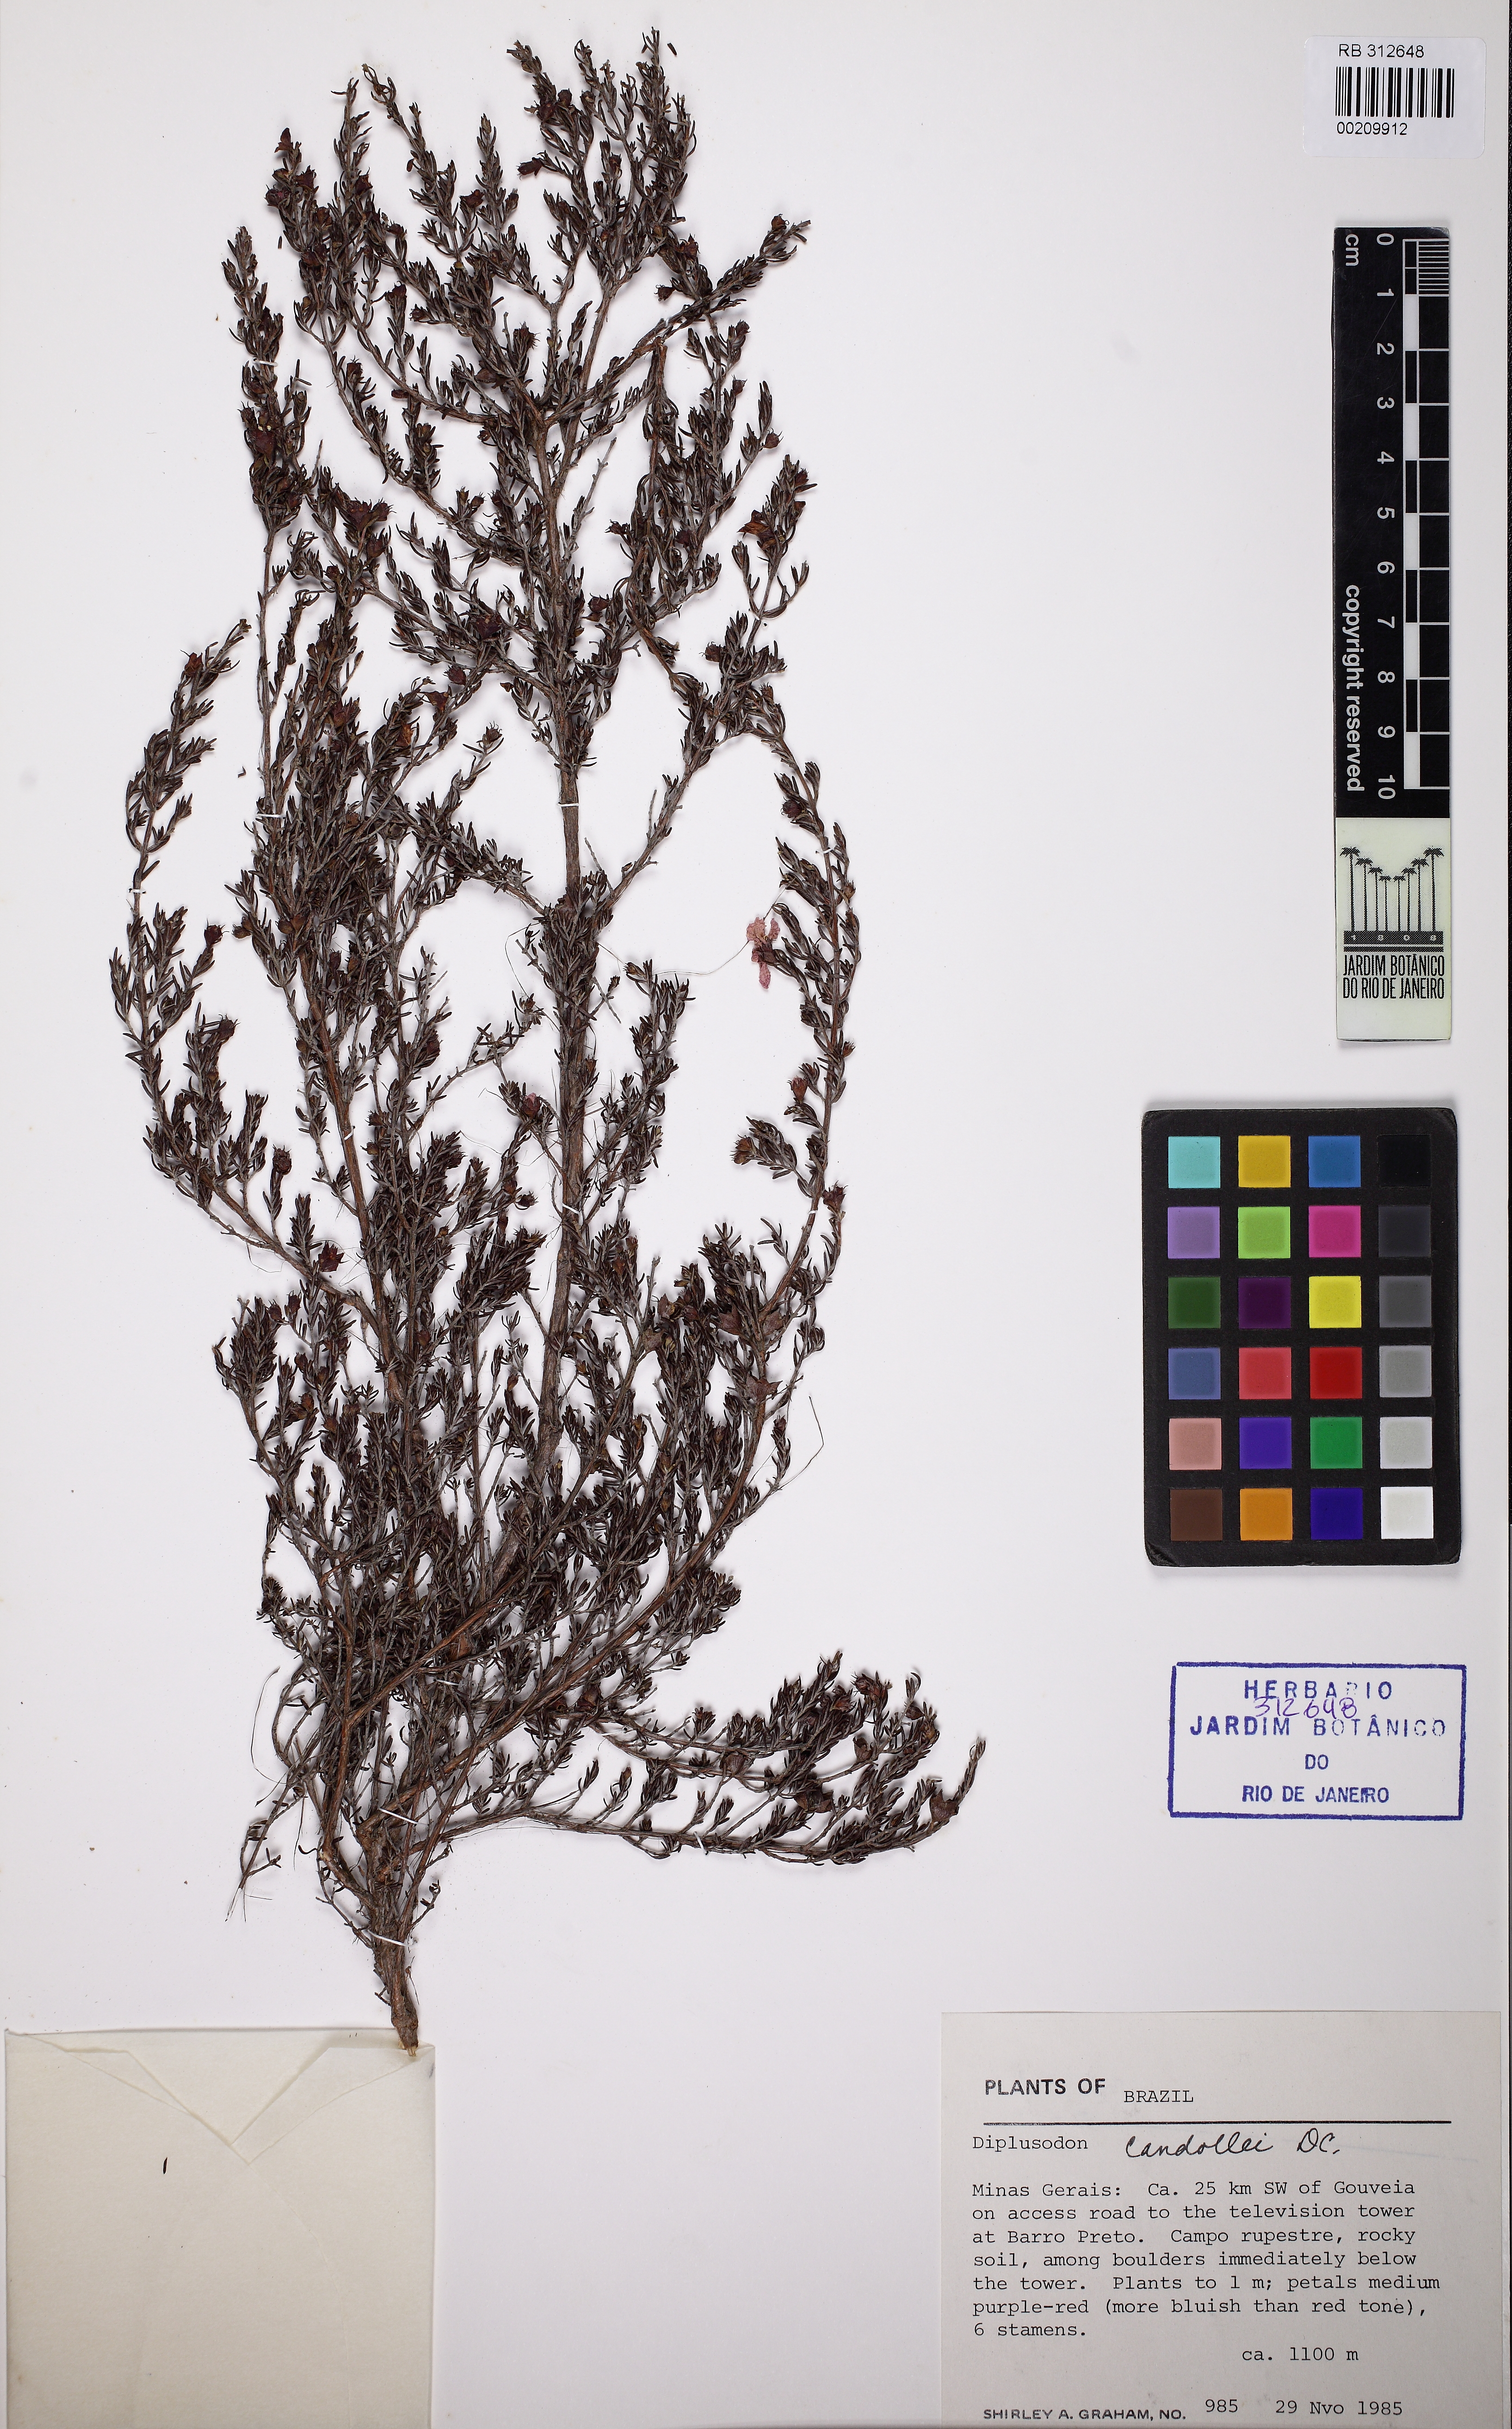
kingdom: Plantae
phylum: Tracheophyta
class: Magnoliopsida
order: Myrtales
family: Lythraceae
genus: Diplusodon
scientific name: Diplusodon candollei
